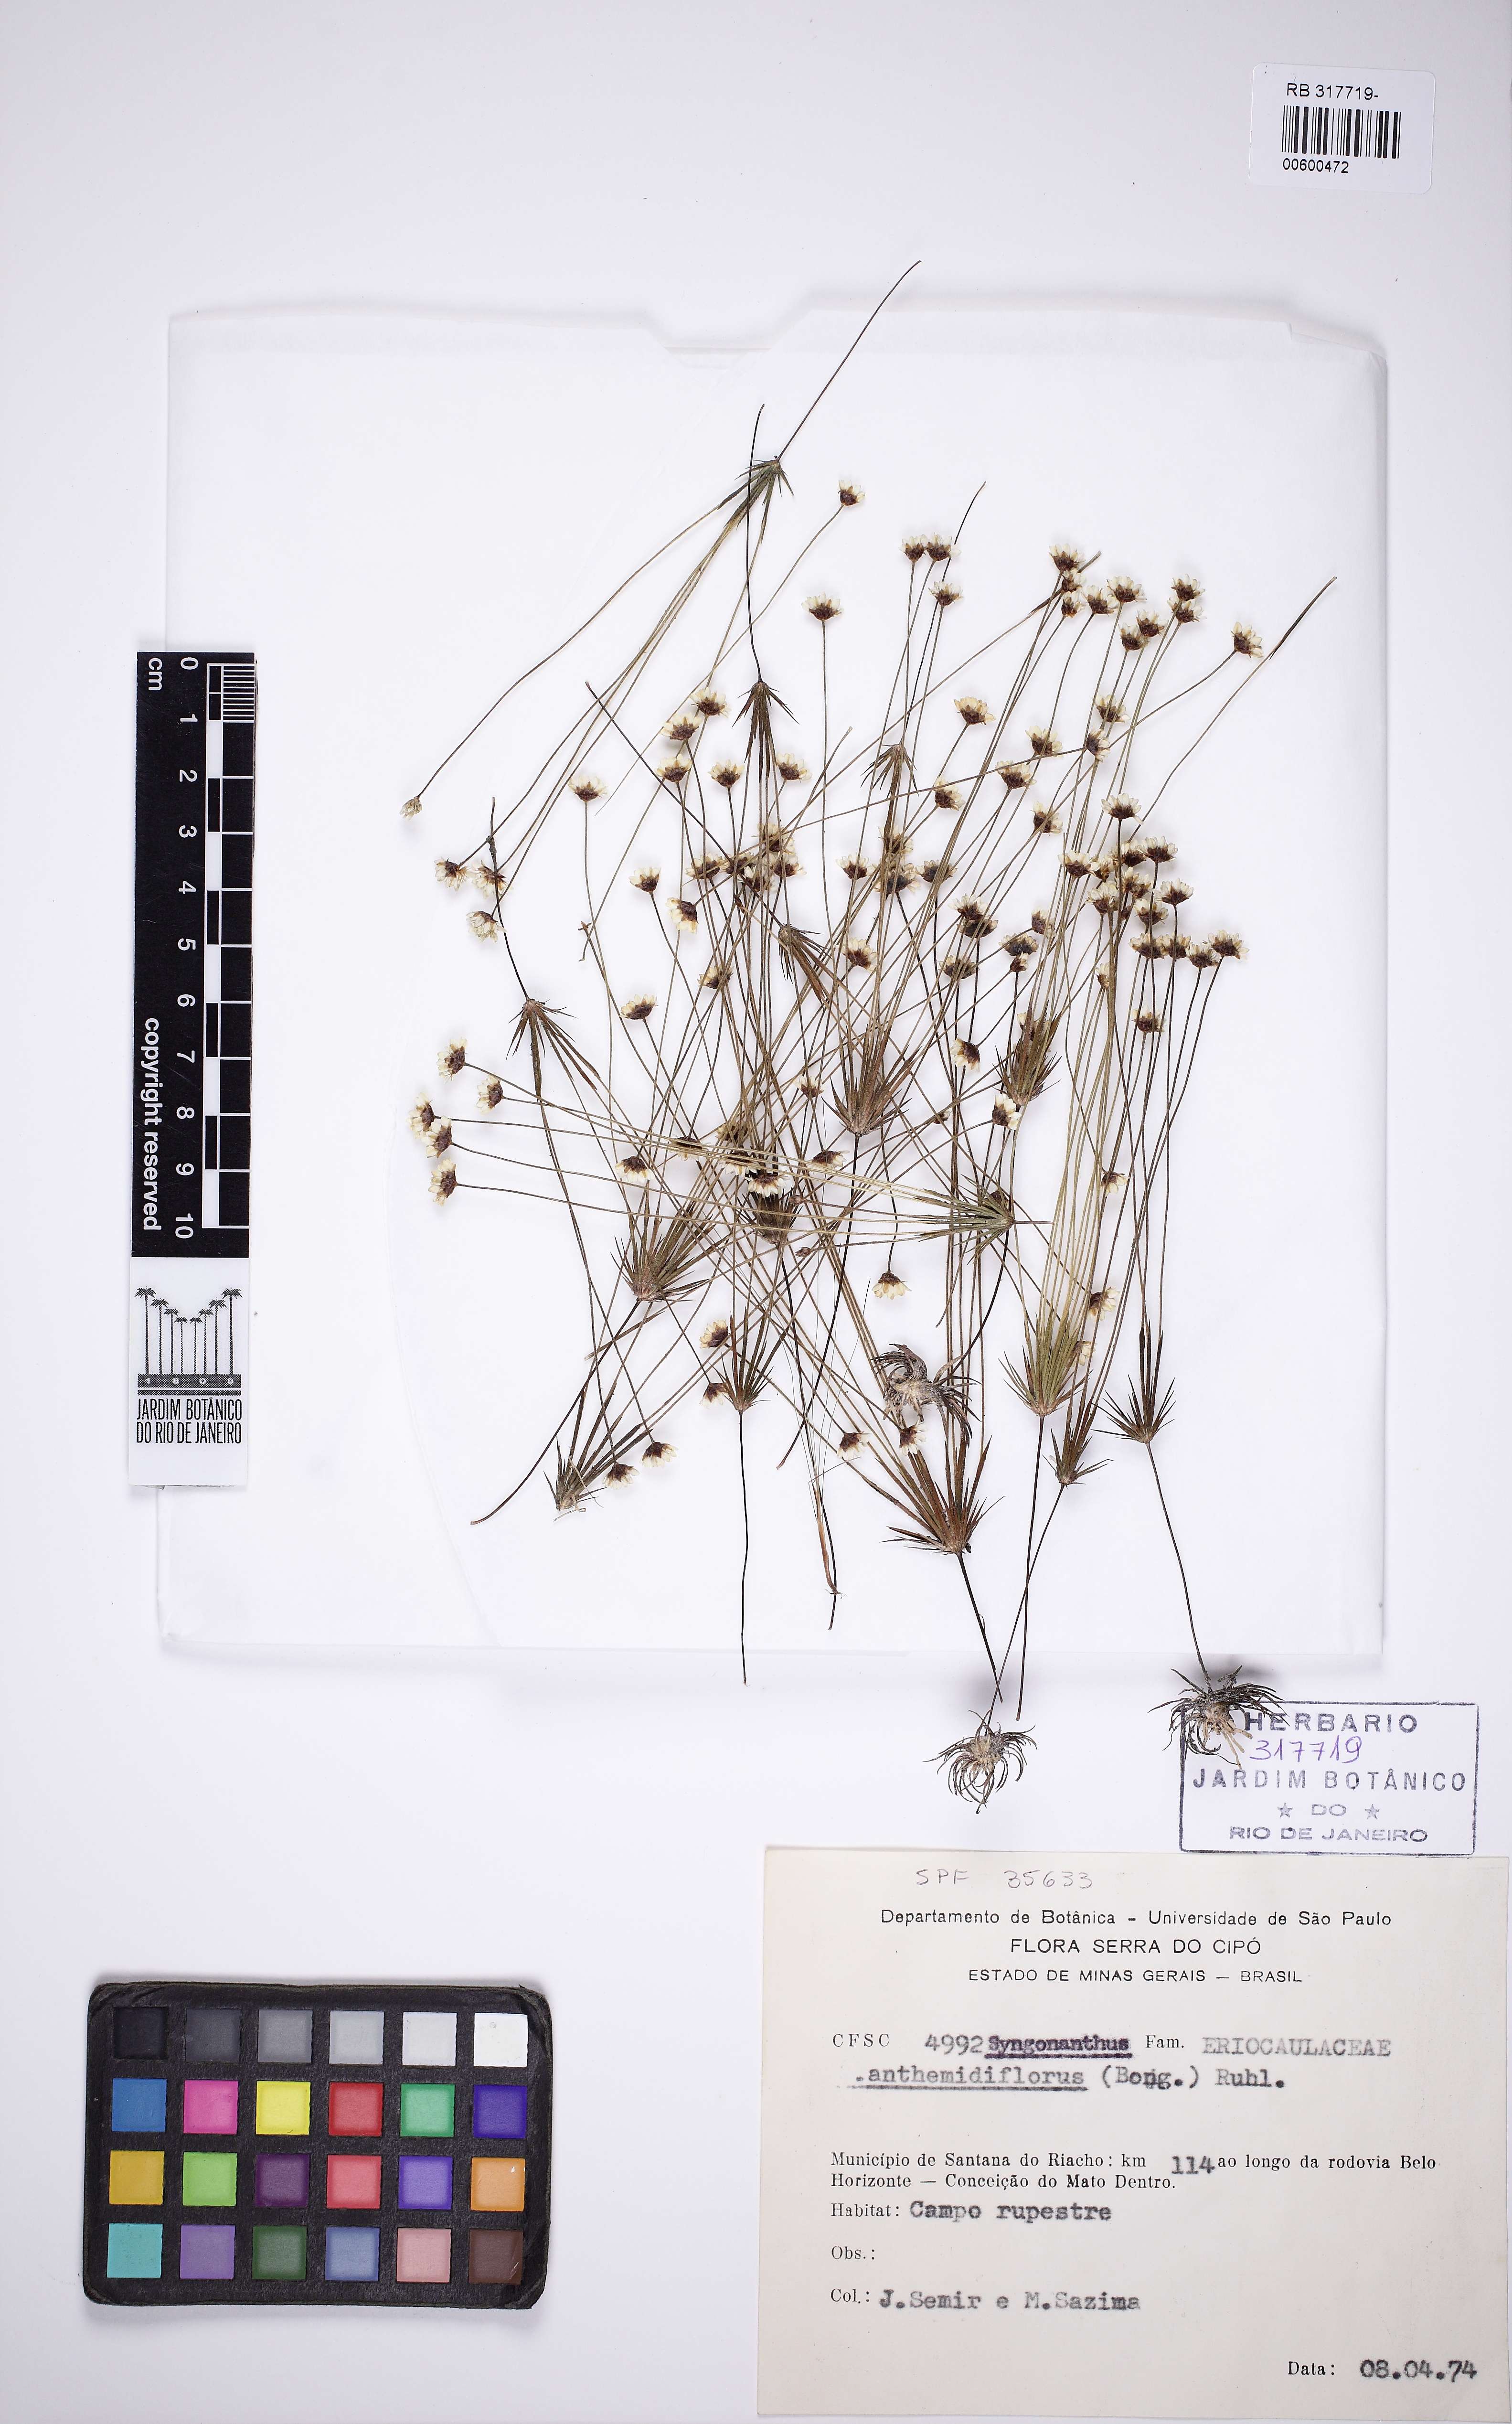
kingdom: Plantae
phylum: Tracheophyta
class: Liliopsida
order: Poales
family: Eriocaulaceae
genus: Syngonanthus
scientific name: Syngonanthus anthemidiflorus
